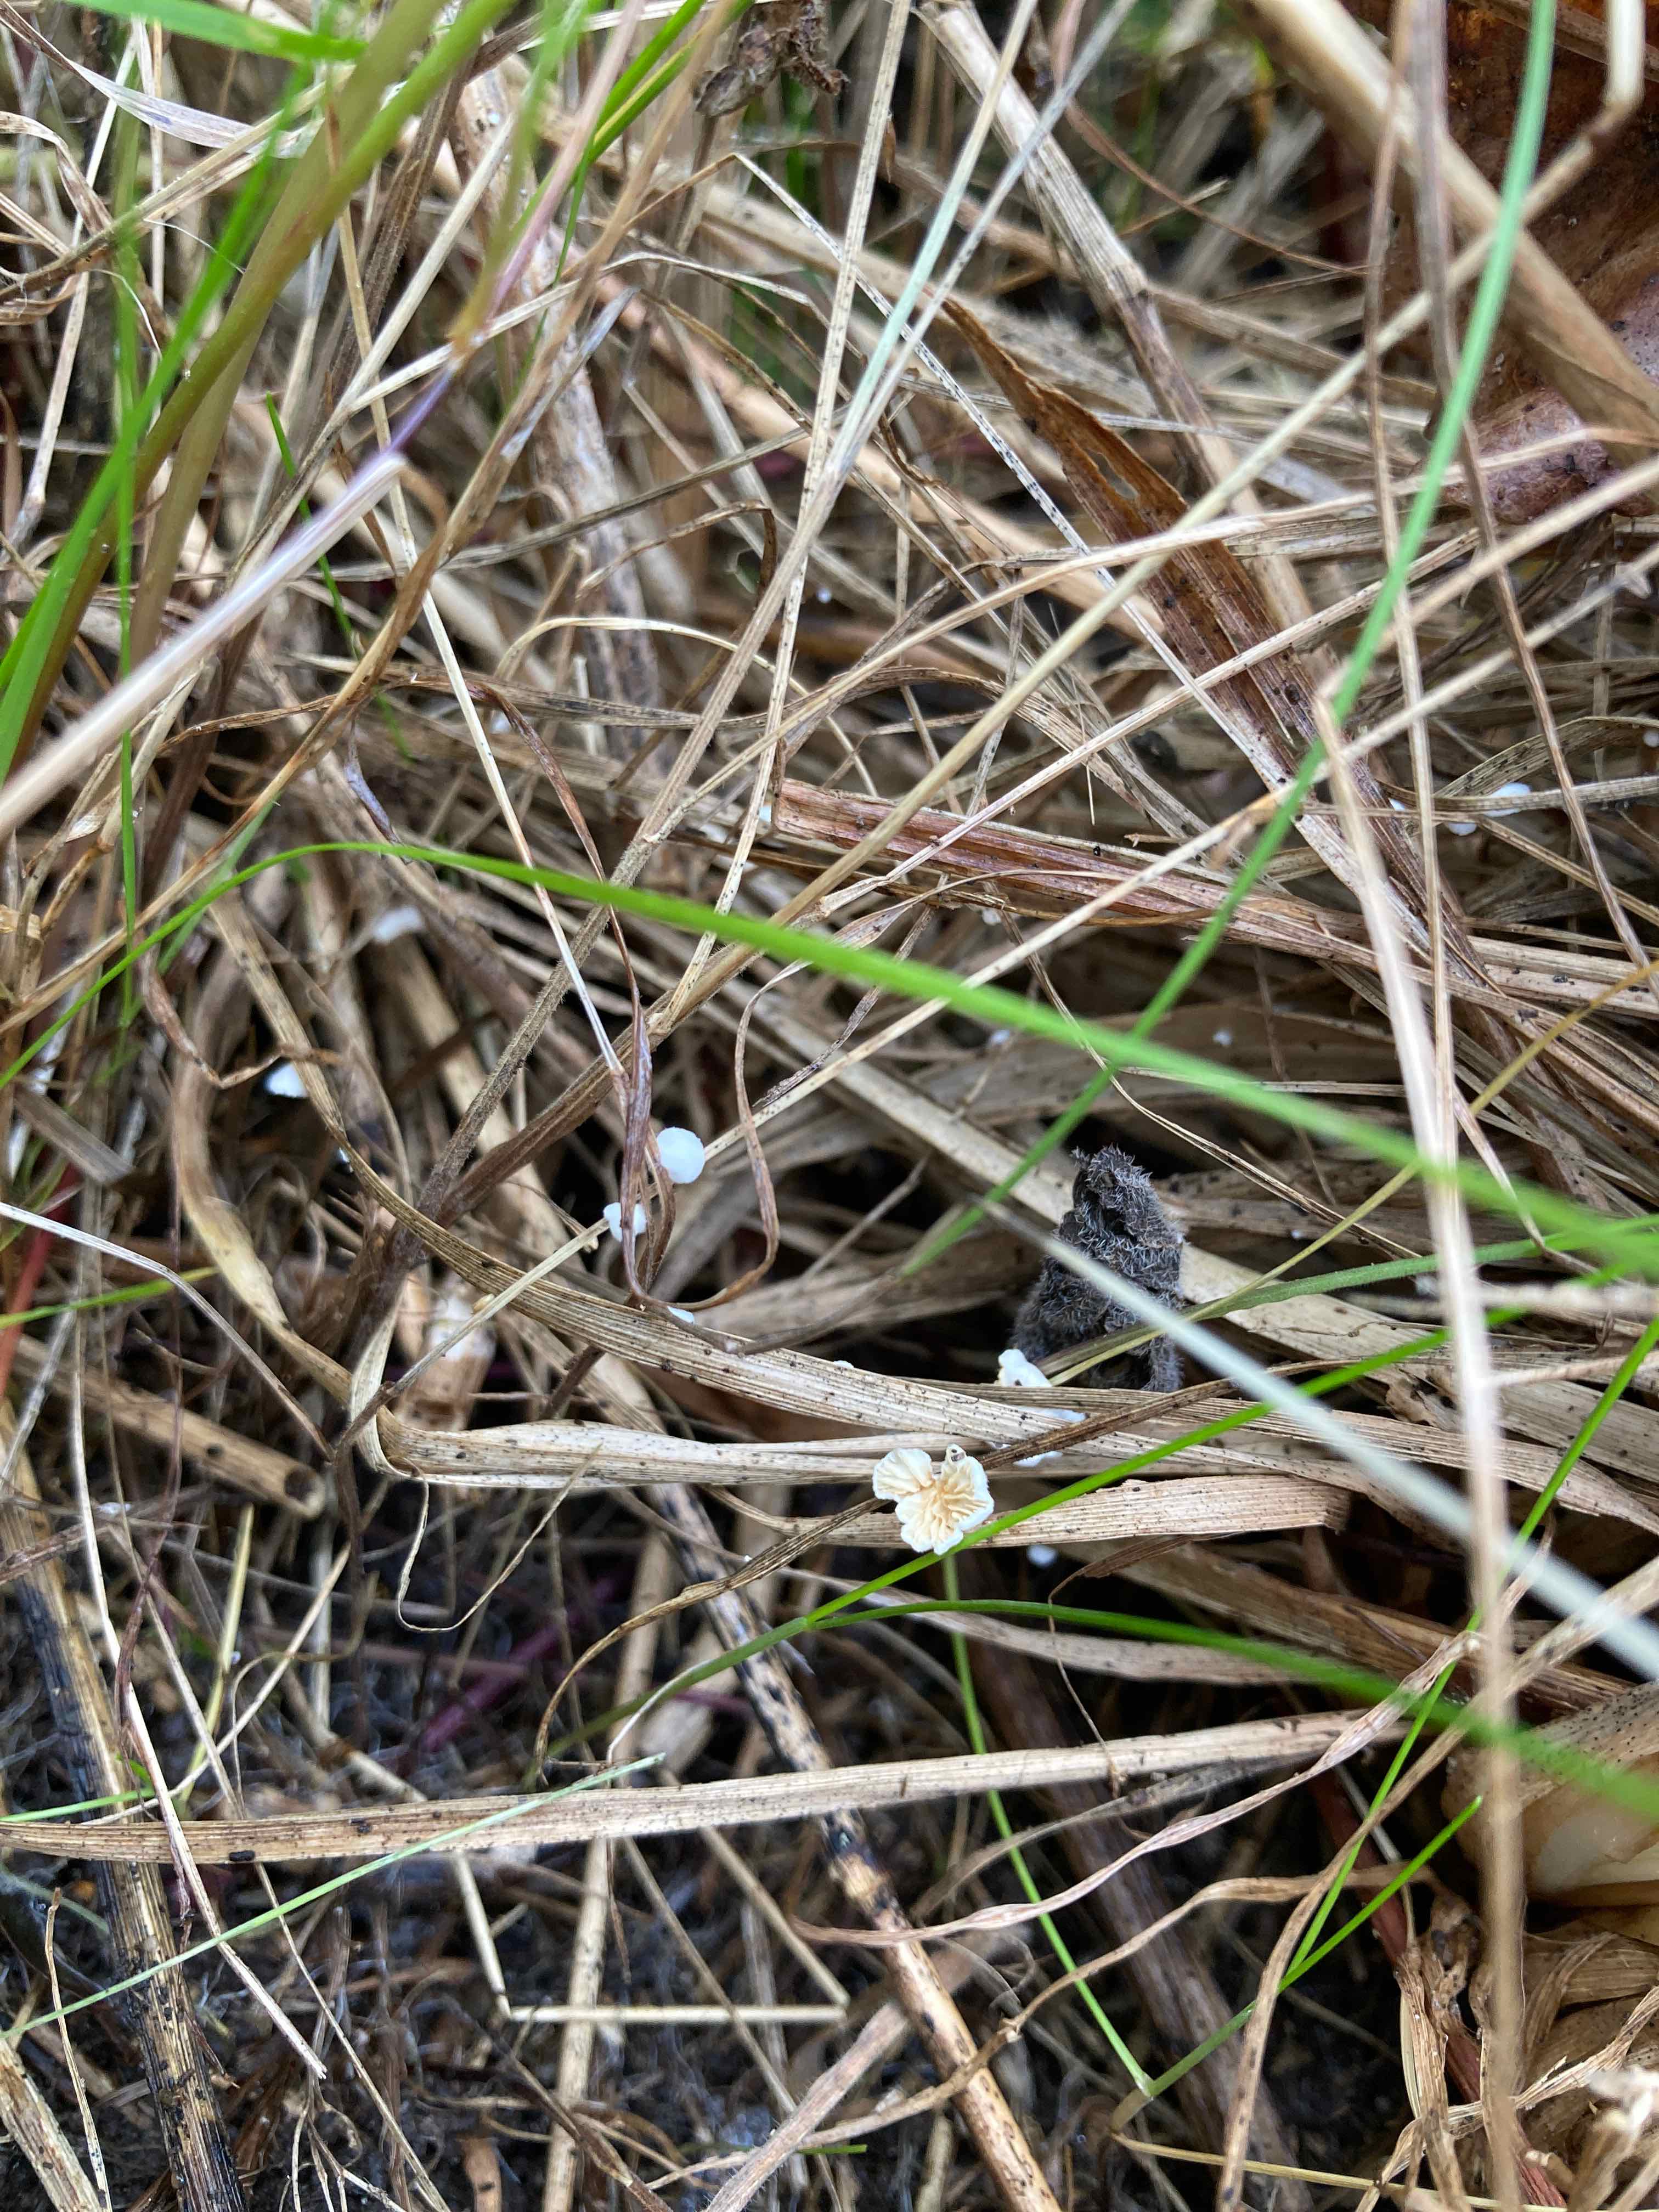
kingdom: Fungi
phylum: Basidiomycota
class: Agaricomycetes
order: Agaricales
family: Crepidotaceae
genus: Crepidotus
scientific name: Crepidotus epibryus
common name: førne-muslingesvamp
